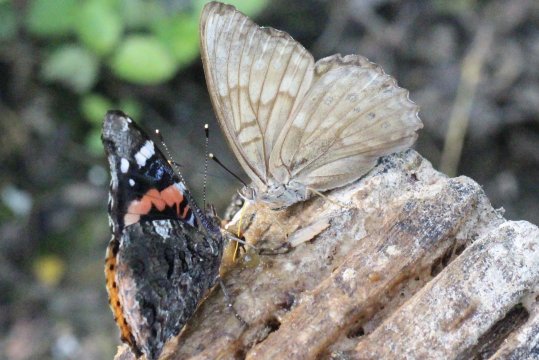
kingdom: Animalia
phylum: Arthropoda
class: Insecta
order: Lepidoptera
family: Nymphalidae
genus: Asterocampa
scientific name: Asterocampa clyton
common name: Tawny Emperor
